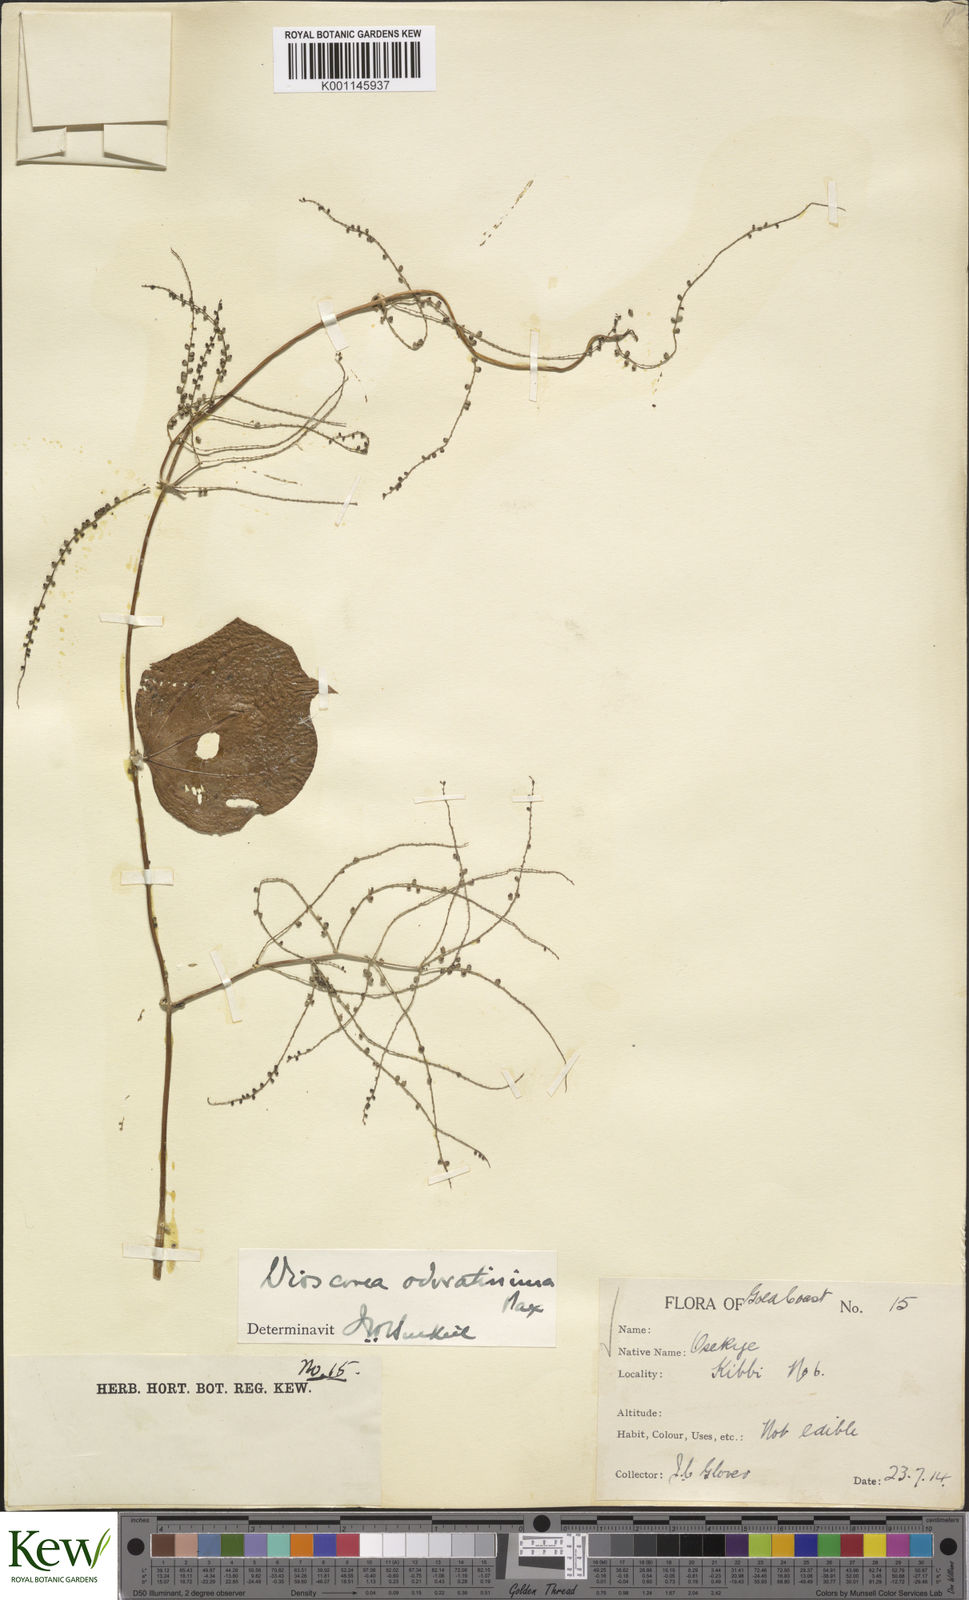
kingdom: Plantae
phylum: Tracheophyta
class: Liliopsida
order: Dioscoreales
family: Dioscoreaceae
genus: Dioscorea
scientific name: Dioscorea praehensilis
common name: Bush yam
